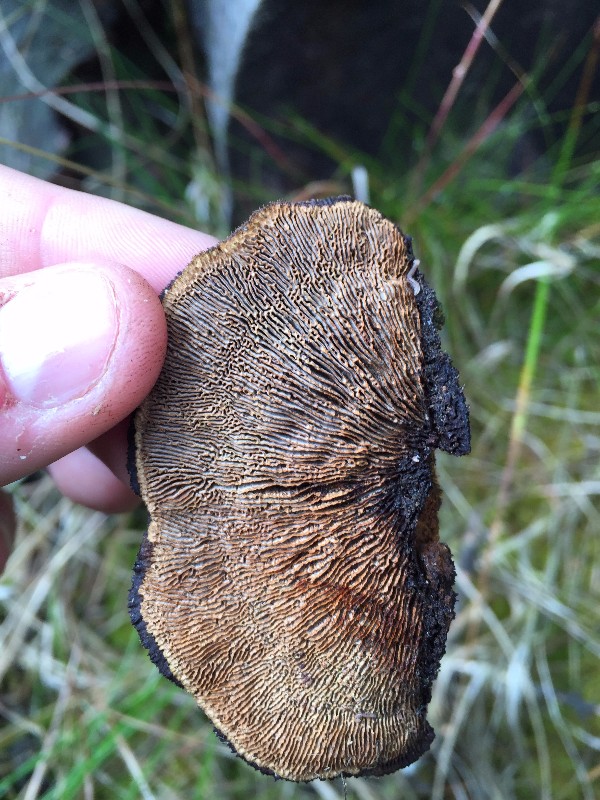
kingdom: Fungi
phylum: Basidiomycota
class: Agaricomycetes
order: Gloeophyllales
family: Gloeophyllaceae
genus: Gloeophyllum
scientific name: Gloeophyllum sepiarium
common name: fyrre-korkhat
